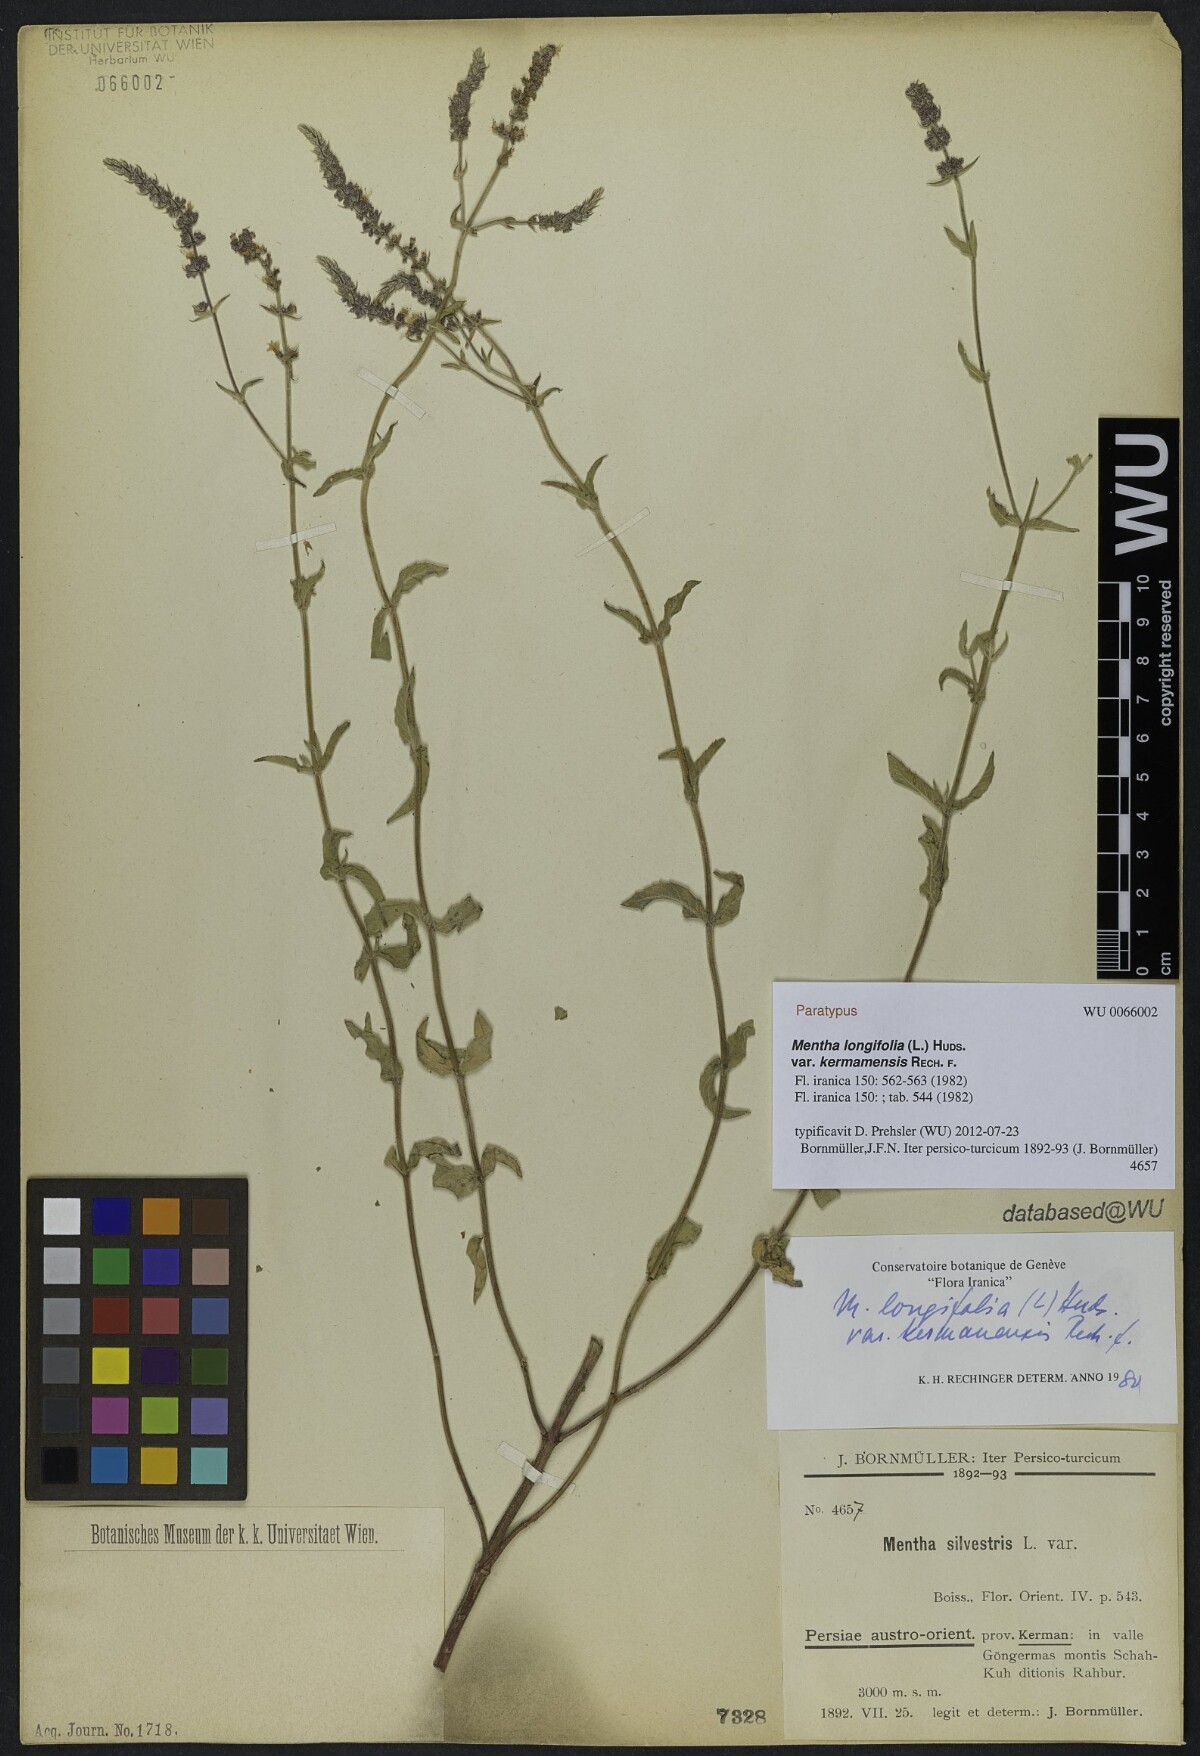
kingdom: Plantae
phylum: Tracheophyta
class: Magnoliopsida
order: Lamiales
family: Lamiaceae
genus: Mentha
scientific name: Mentha longifolia
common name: Horse mint
